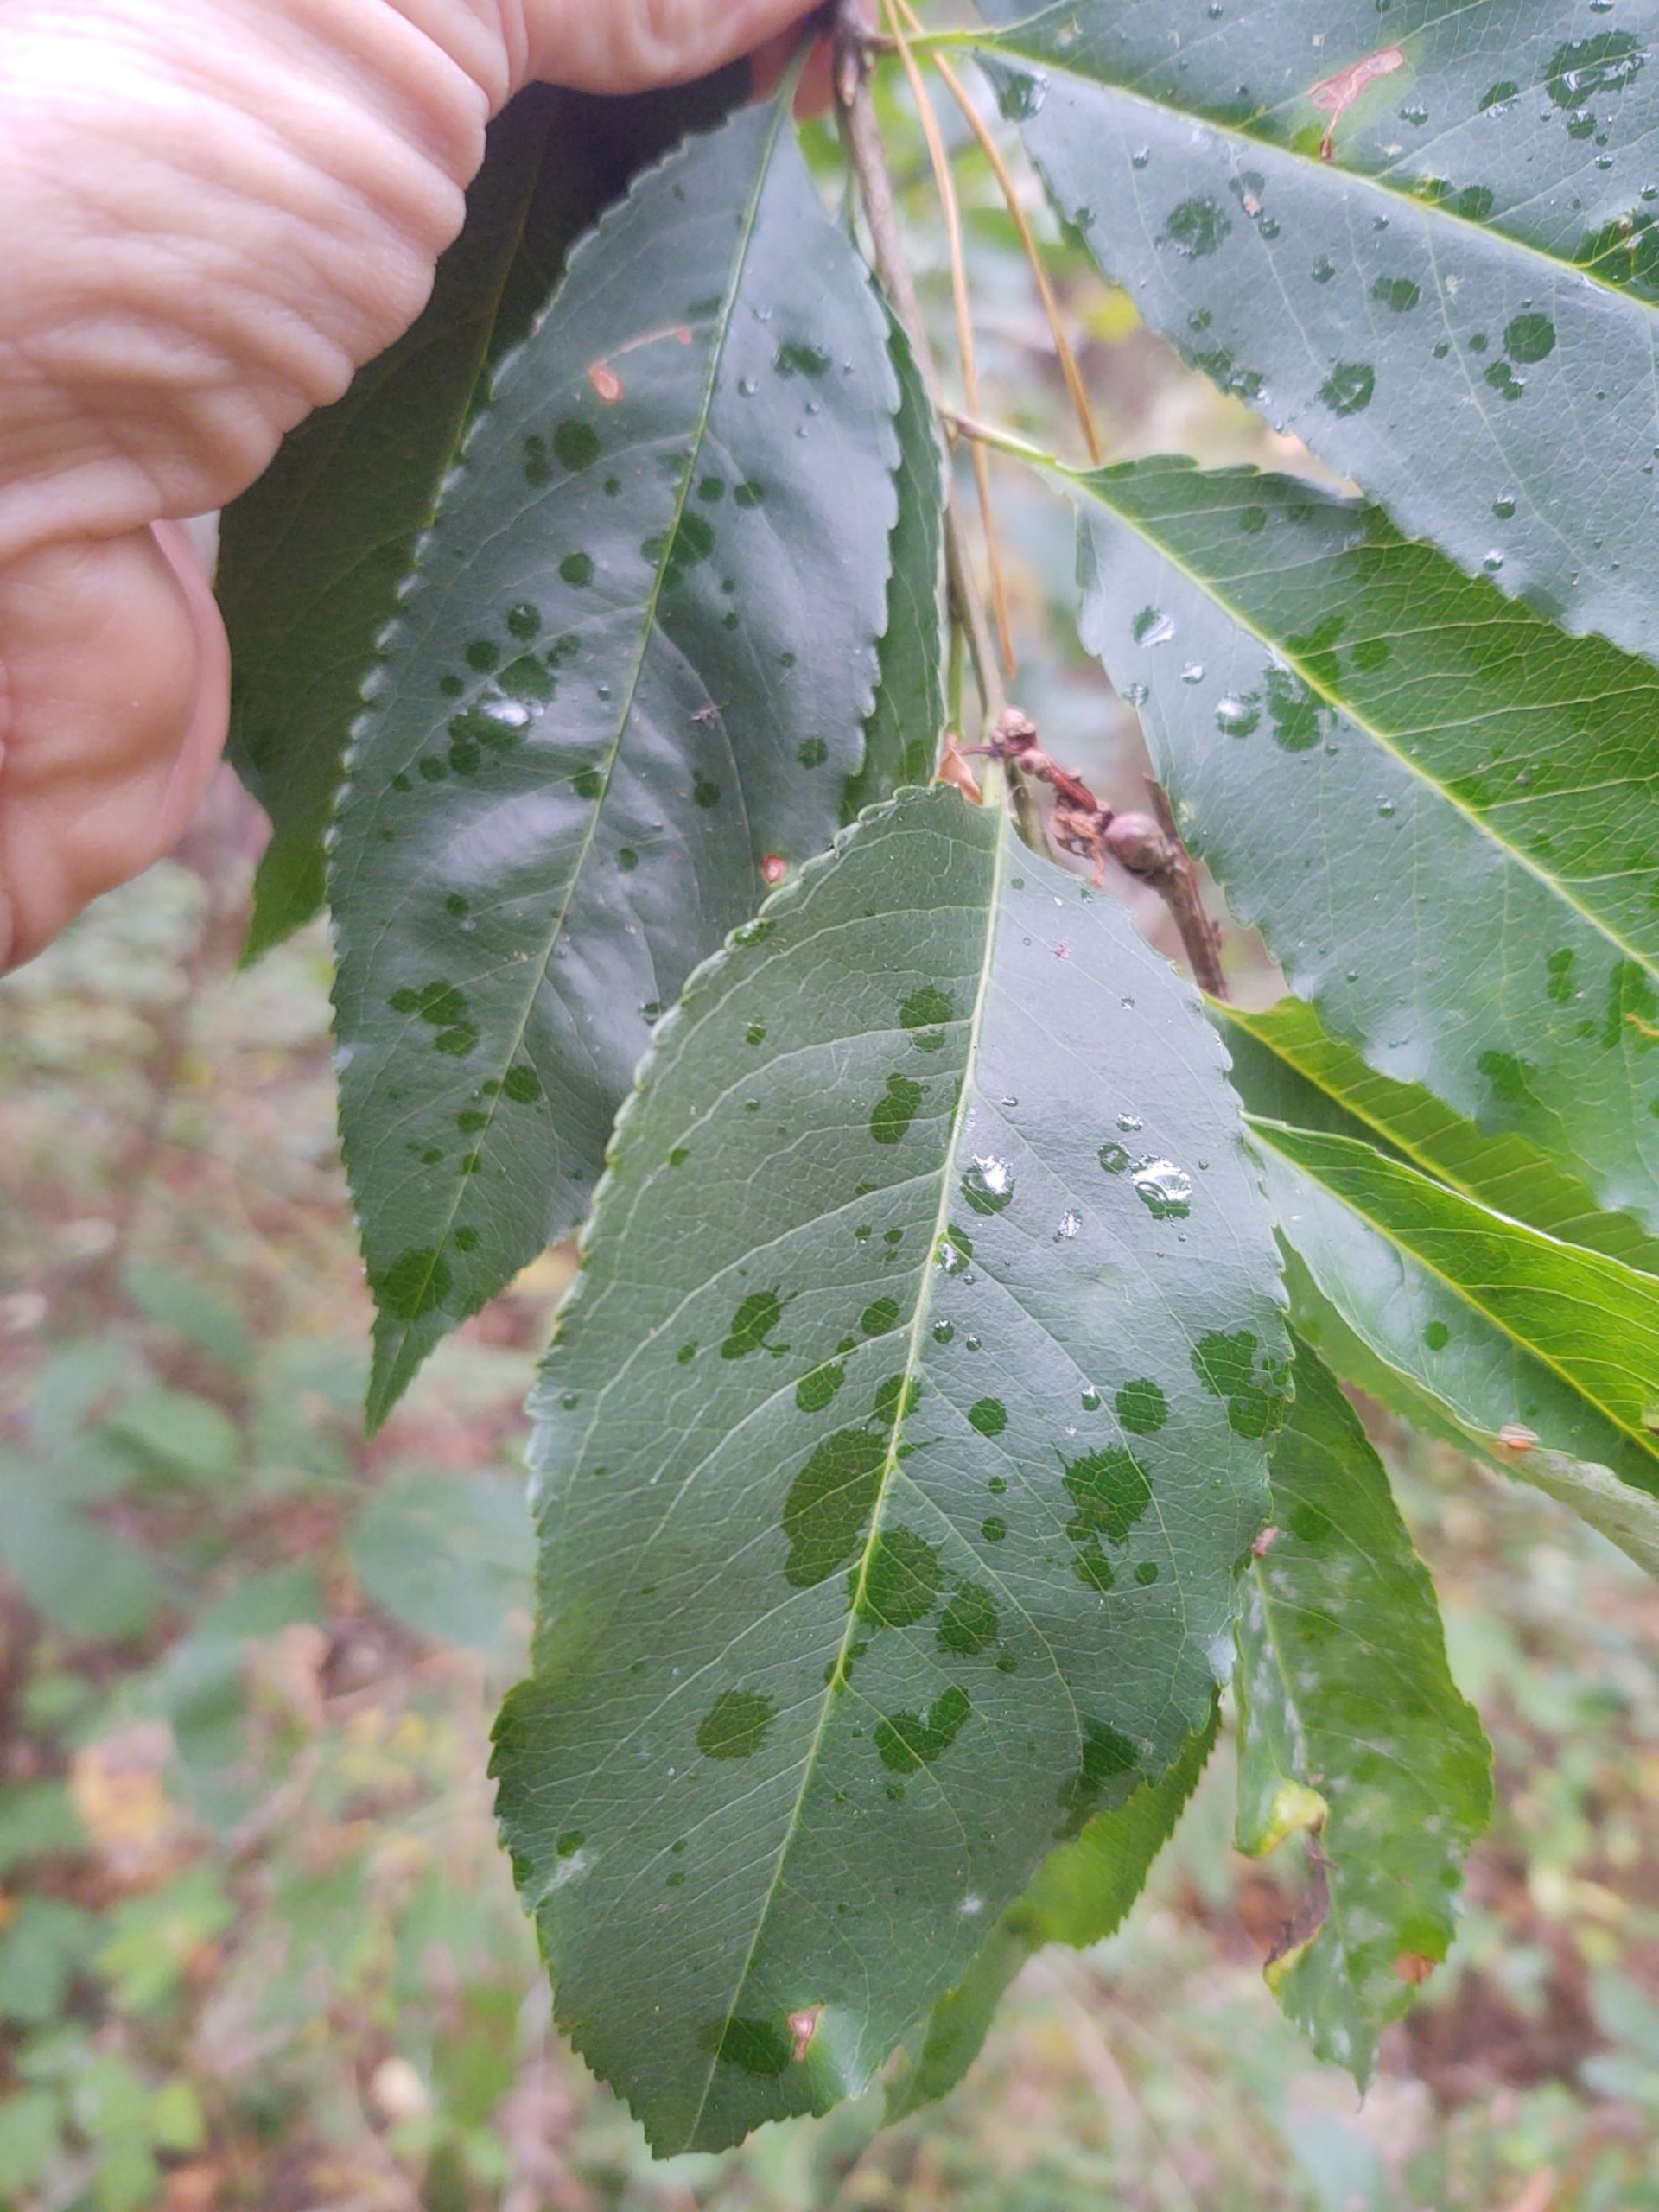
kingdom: Plantae
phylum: Tracheophyta
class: Magnoliopsida
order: Rosales
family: Rosaceae
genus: Prunus
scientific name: Prunus serotina
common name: Glansbladet hæg
